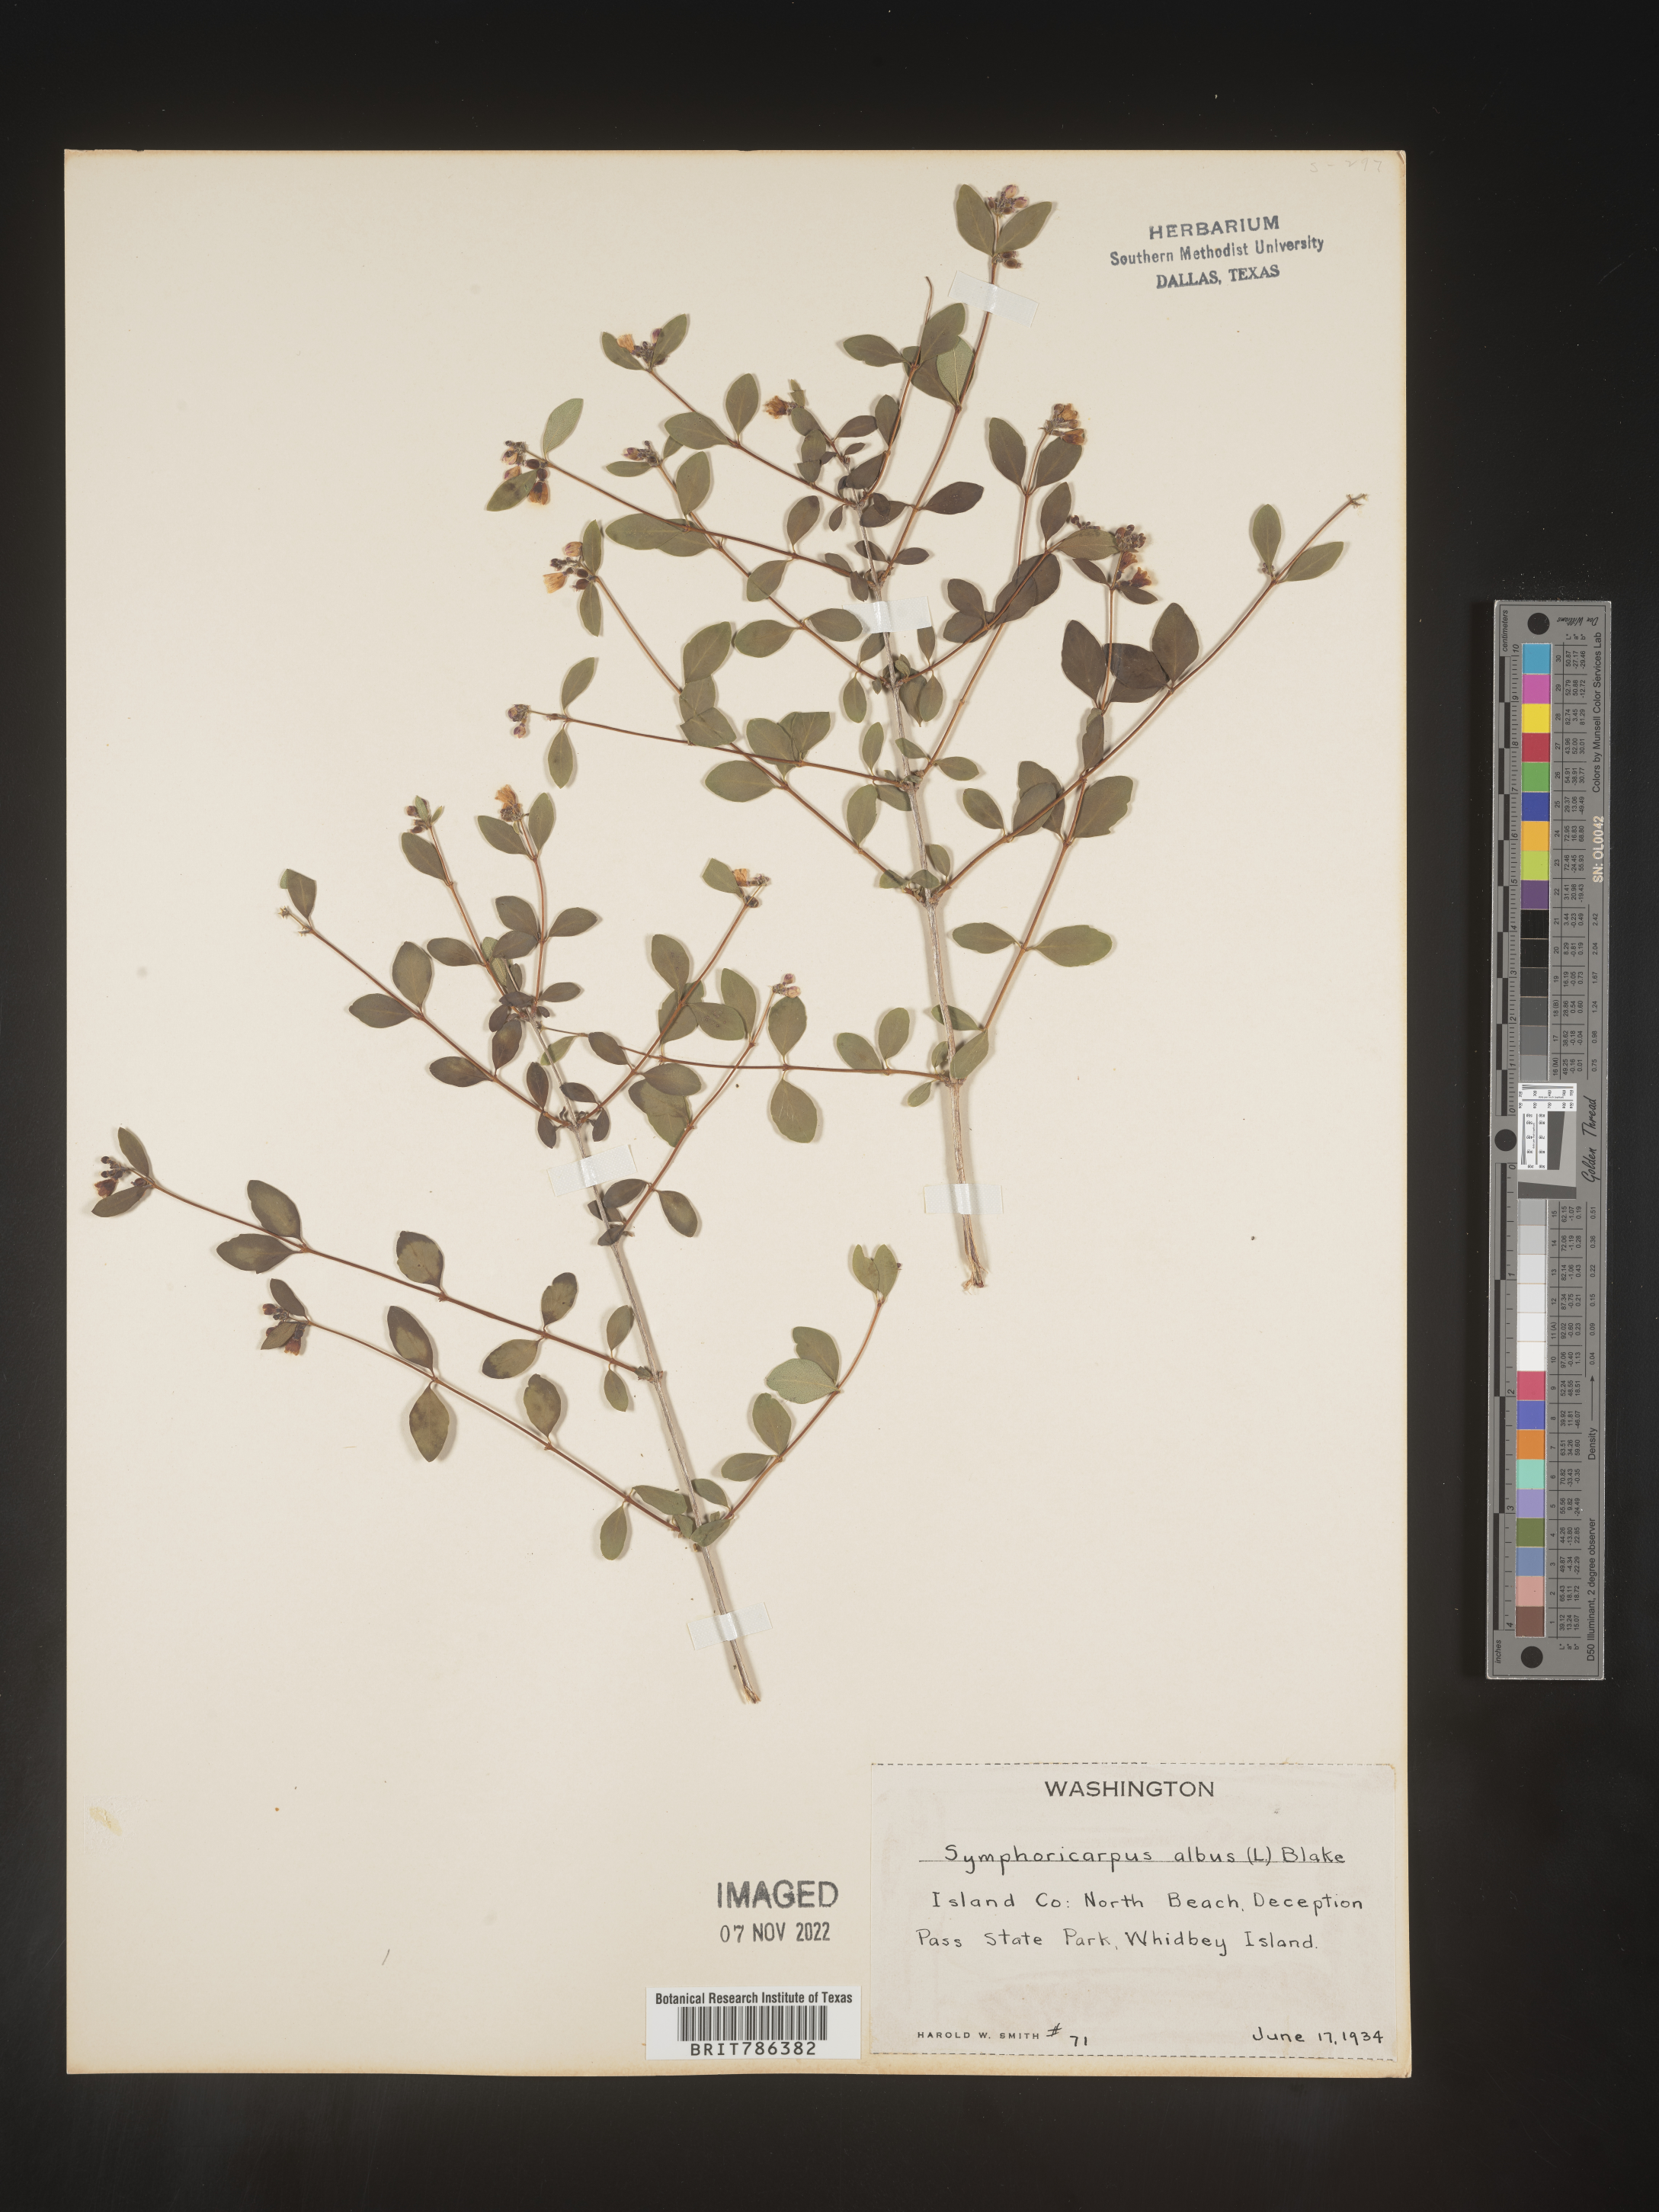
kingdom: Plantae
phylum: Tracheophyta
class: Magnoliopsida
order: Dipsacales
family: Caprifoliaceae
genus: Symphoricarpos
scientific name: Symphoricarpos albus
